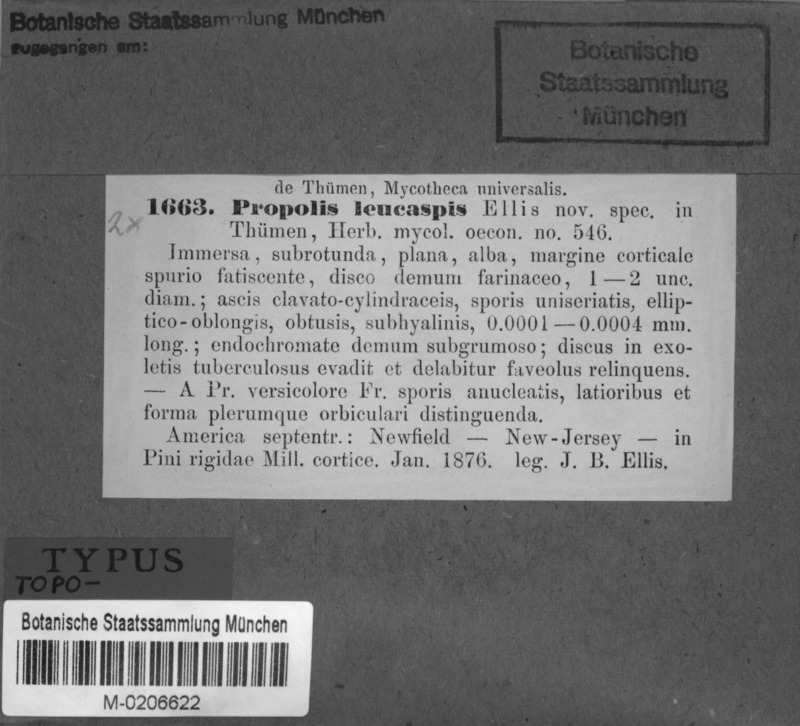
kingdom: Fungi
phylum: Ascomycota
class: Leotiomycetes
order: Chaetomellales
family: Marthamycetaceae
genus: Propolis
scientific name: Propolis leonis
